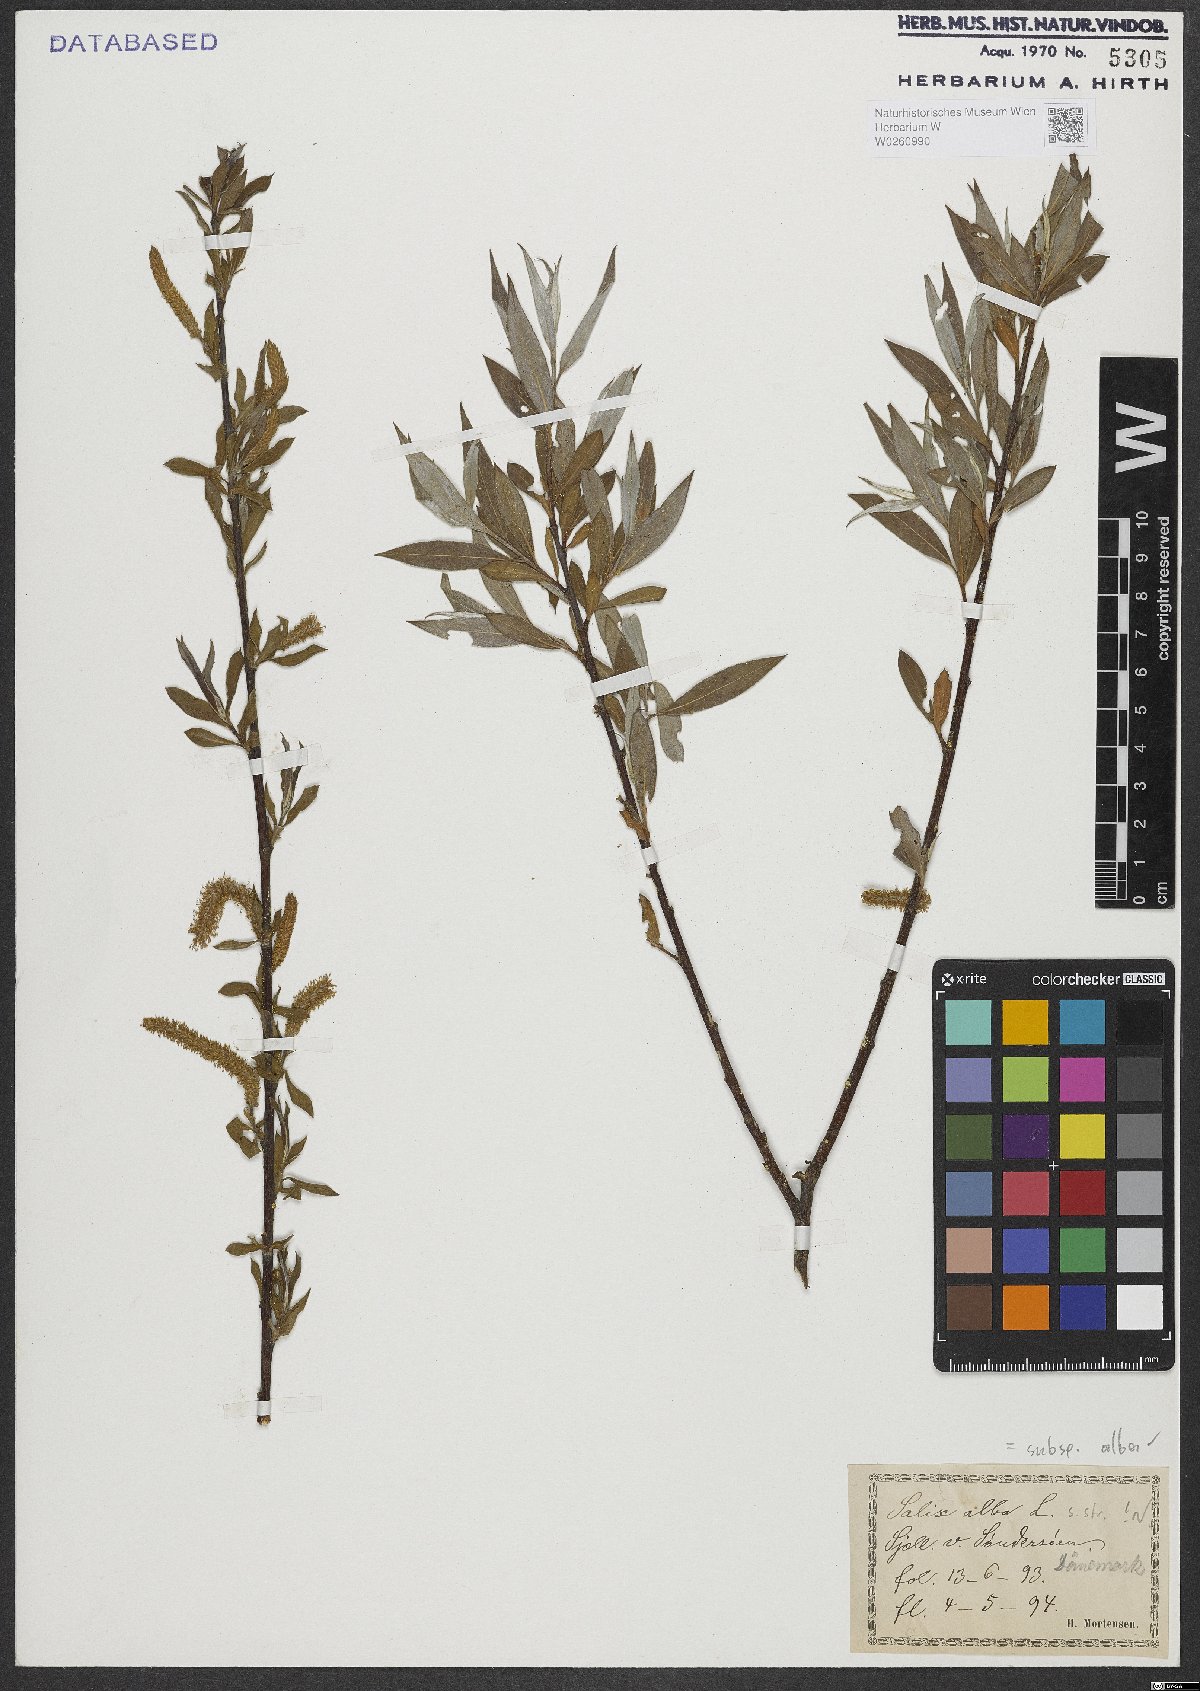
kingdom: Plantae
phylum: Tracheophyta
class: Magnoliopsida
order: Malpighiales
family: Salicaceae
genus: Salix
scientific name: Salix alba
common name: White willow
